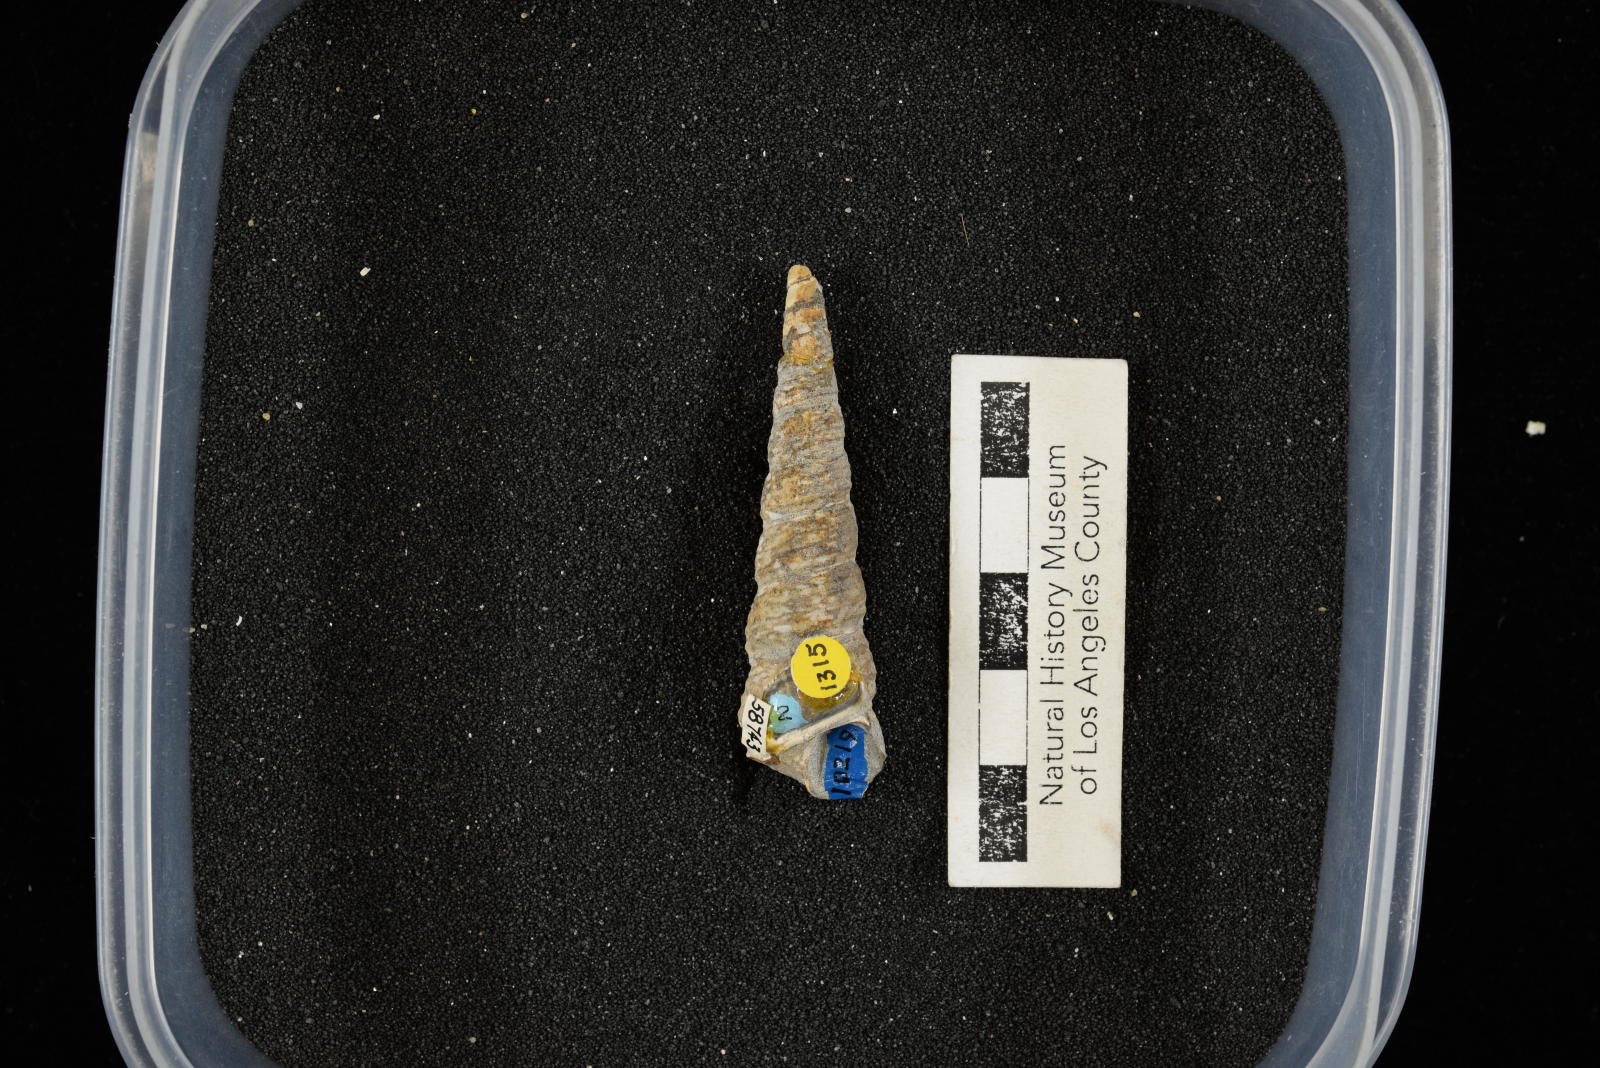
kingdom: Animalia
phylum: Mollusca
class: Gastropoda
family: Turritellidae
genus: Turritella
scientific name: Turritella chicoensis
